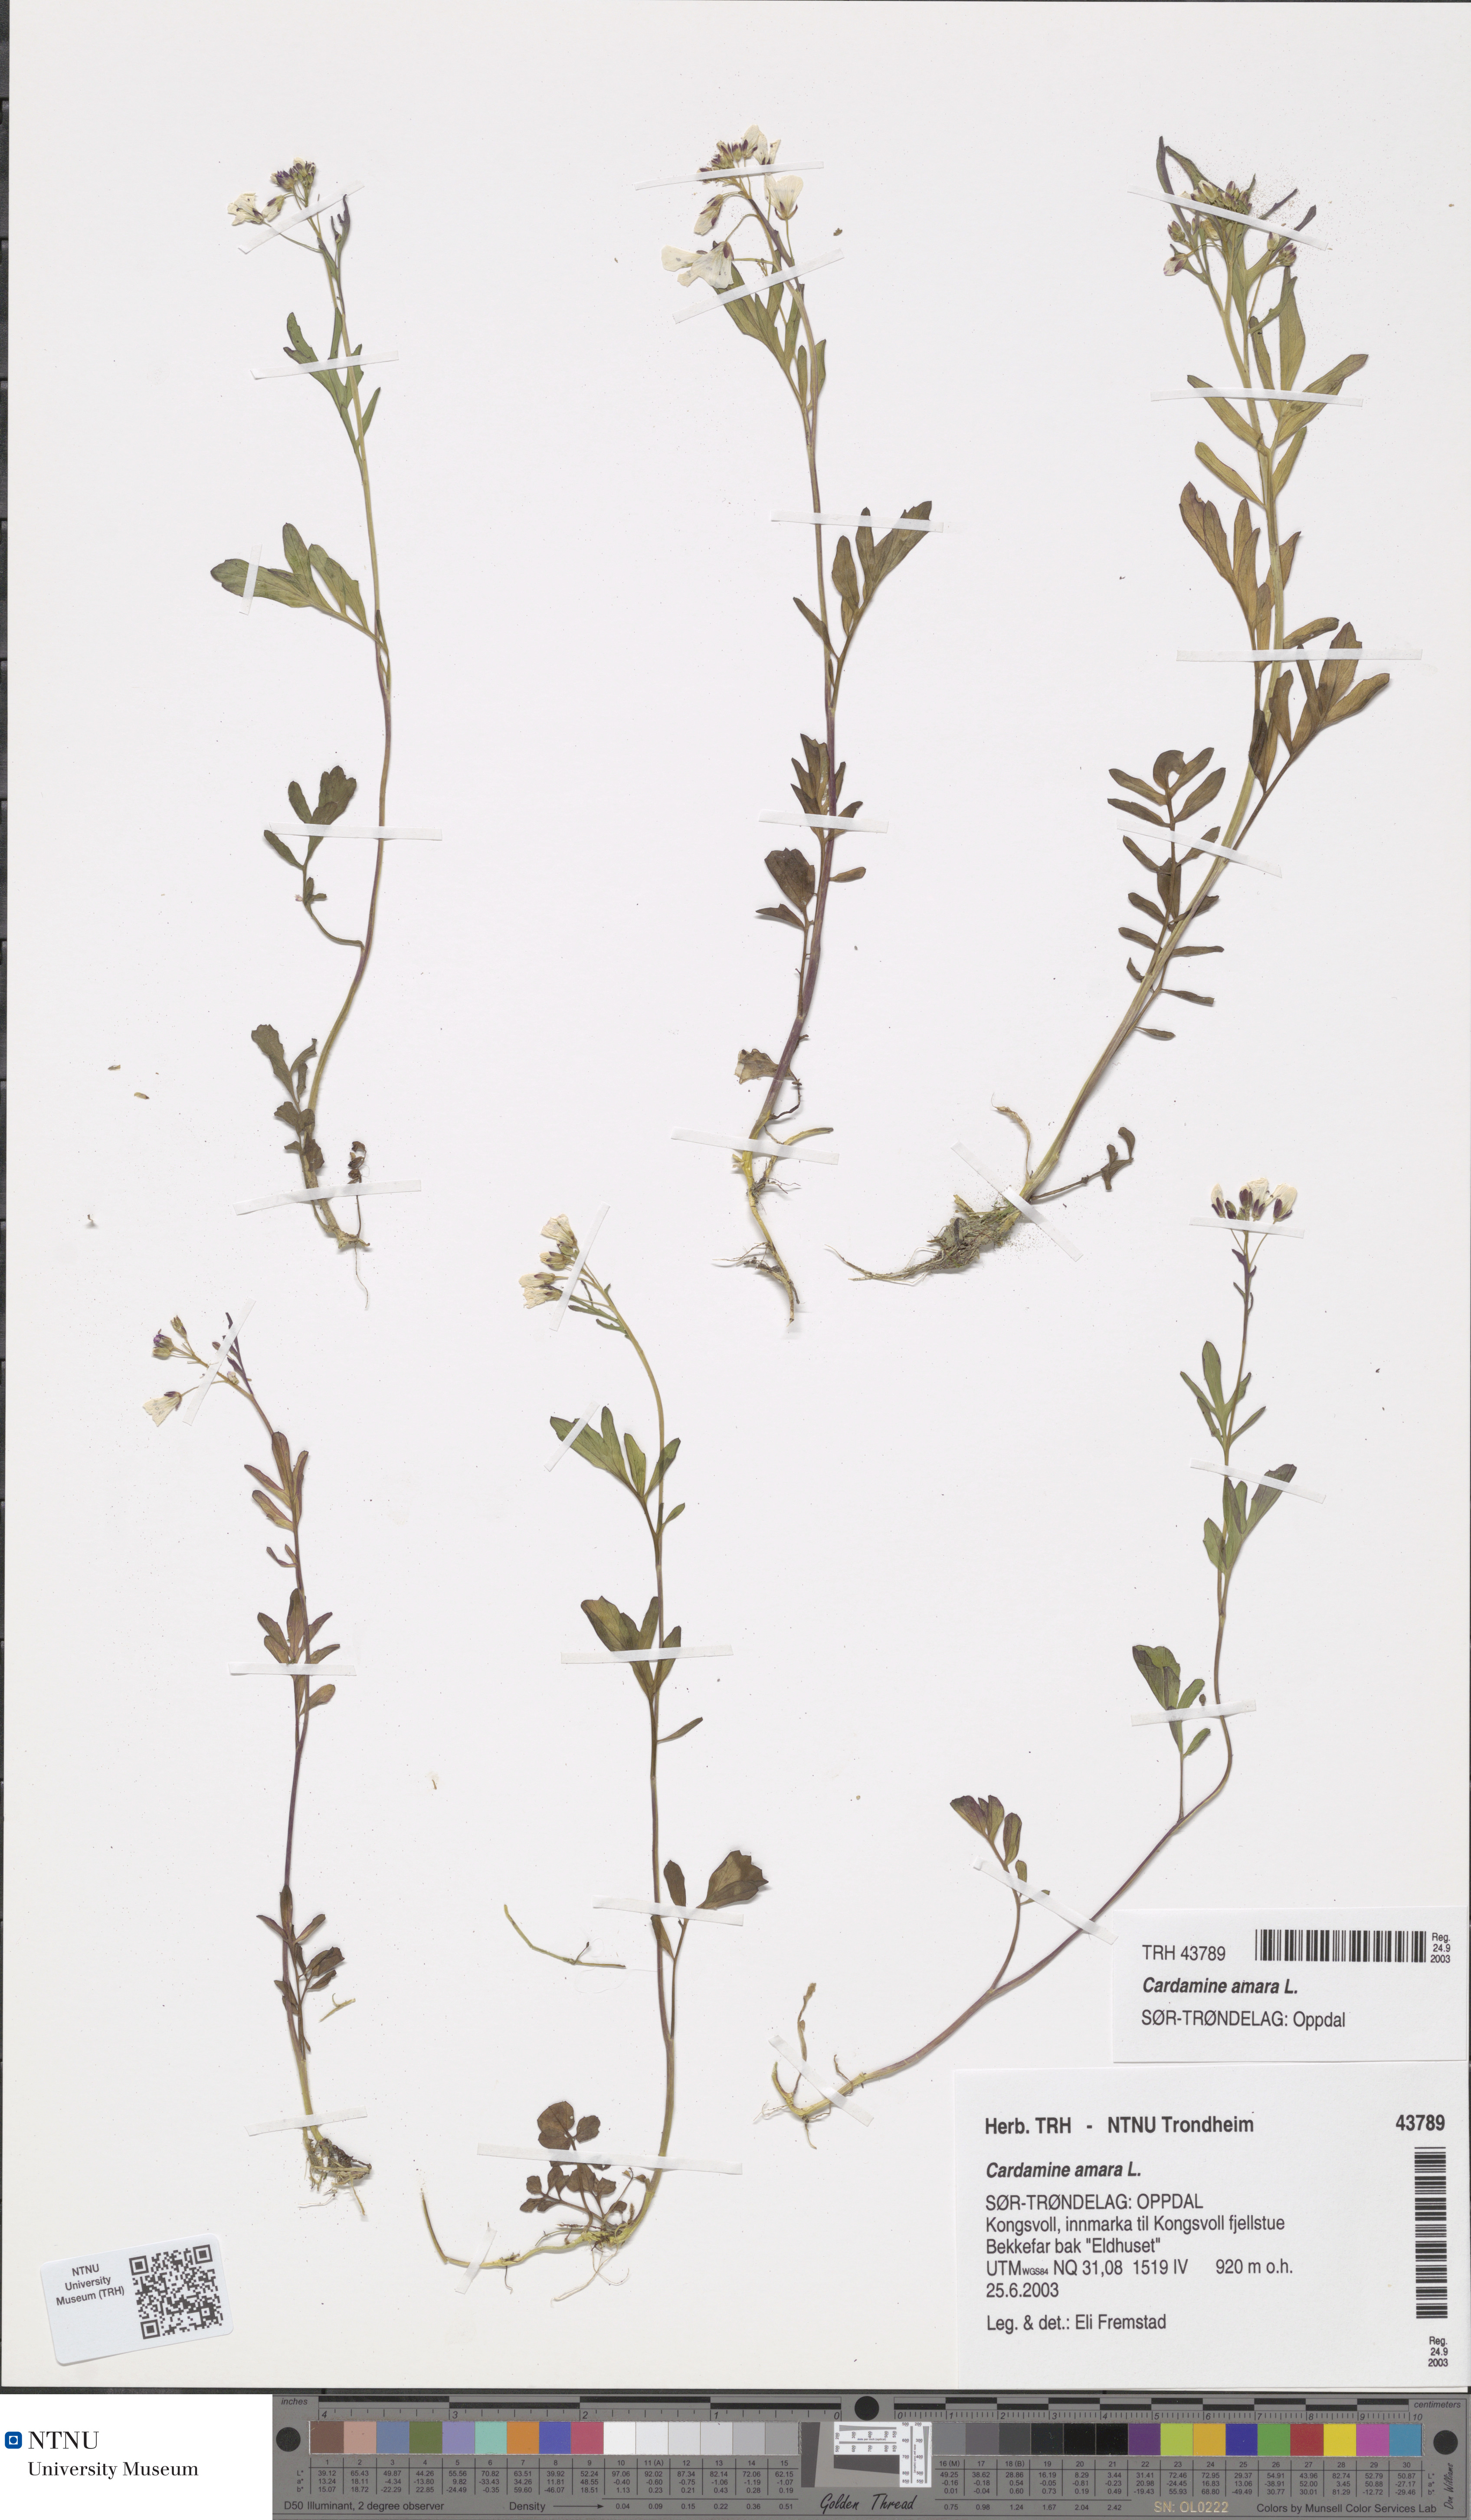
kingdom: Plantae
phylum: Tracheophyta
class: Magnoliopsida
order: Brassicales
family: Brassicaceae
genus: Cardamine
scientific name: Cardamine amara
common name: Large bitter-cress
